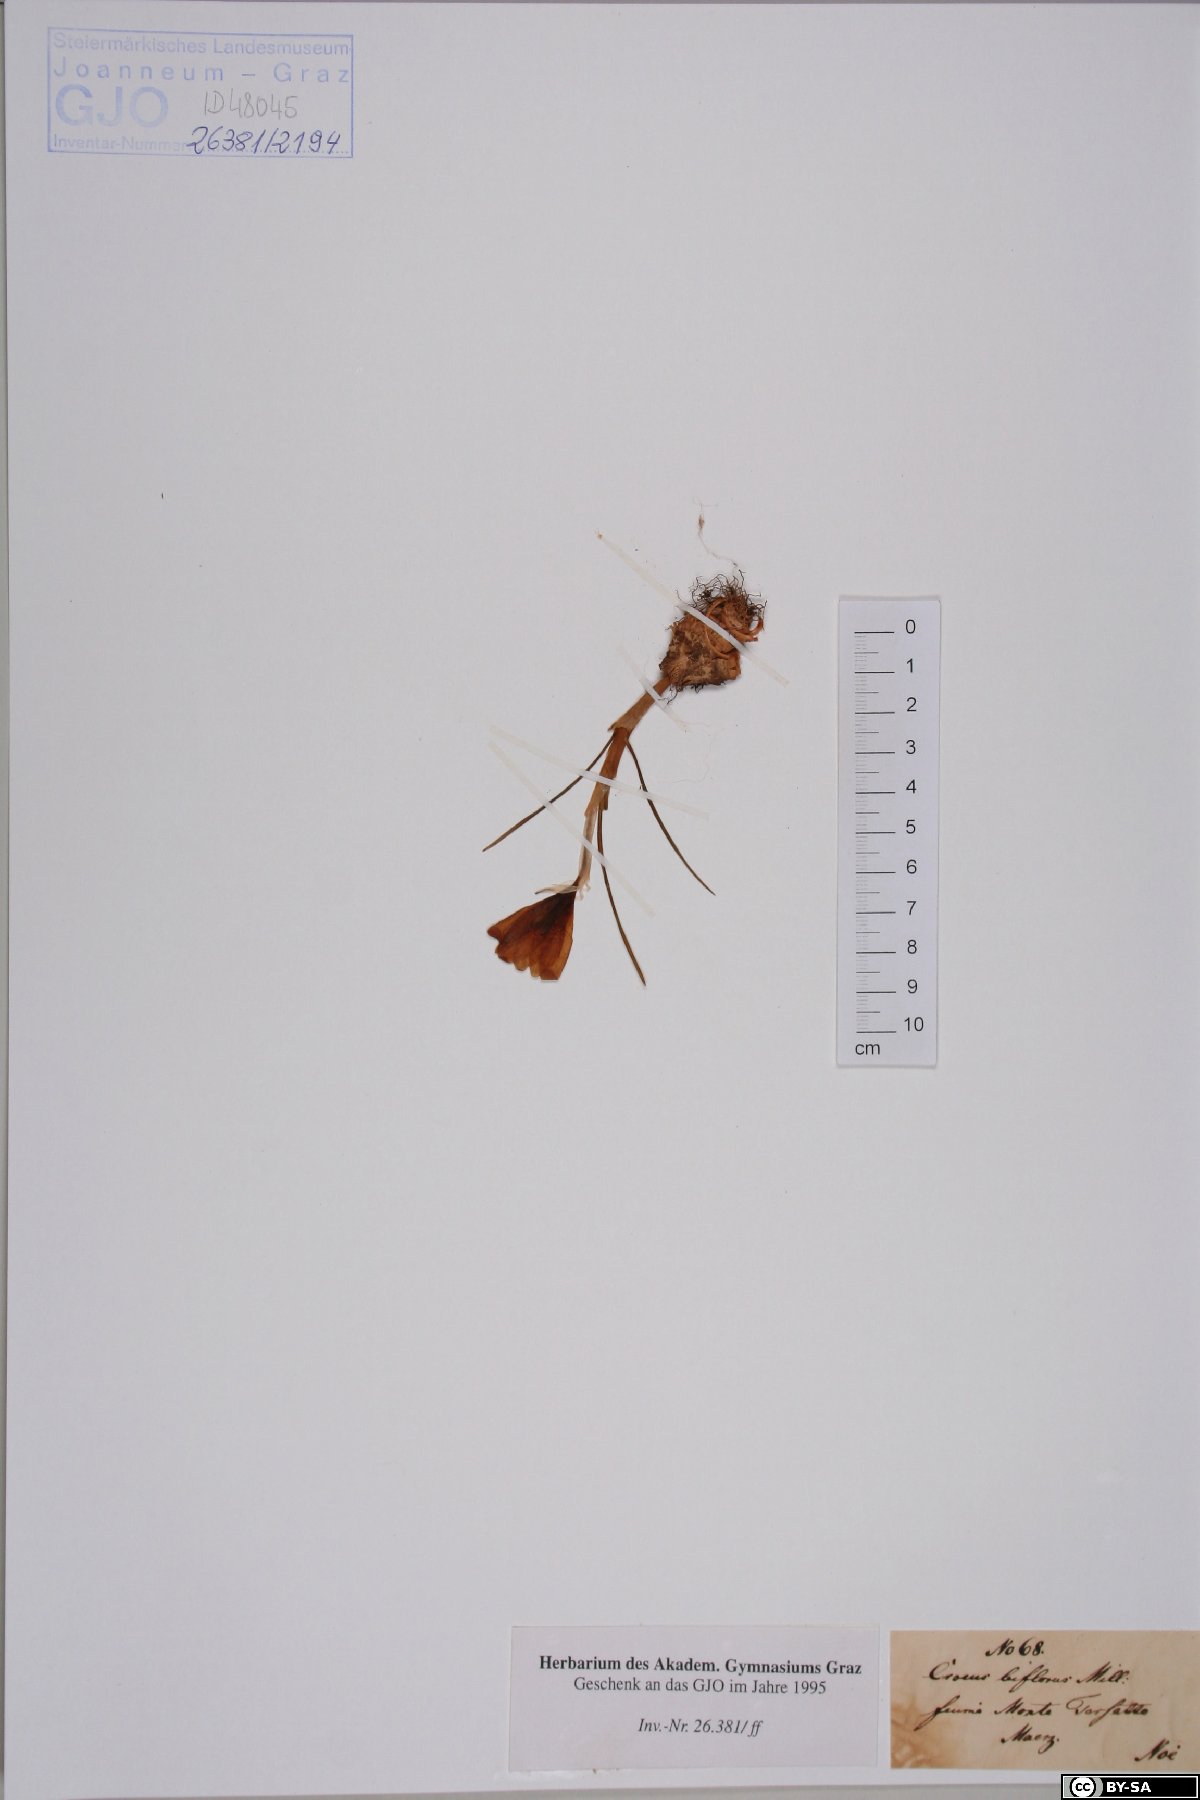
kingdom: Plantae
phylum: Tracheophyta
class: Liliopsida
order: Asparagales
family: Iridaceae
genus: Crocus
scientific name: Crocus biflorus
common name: Silvery crocus
